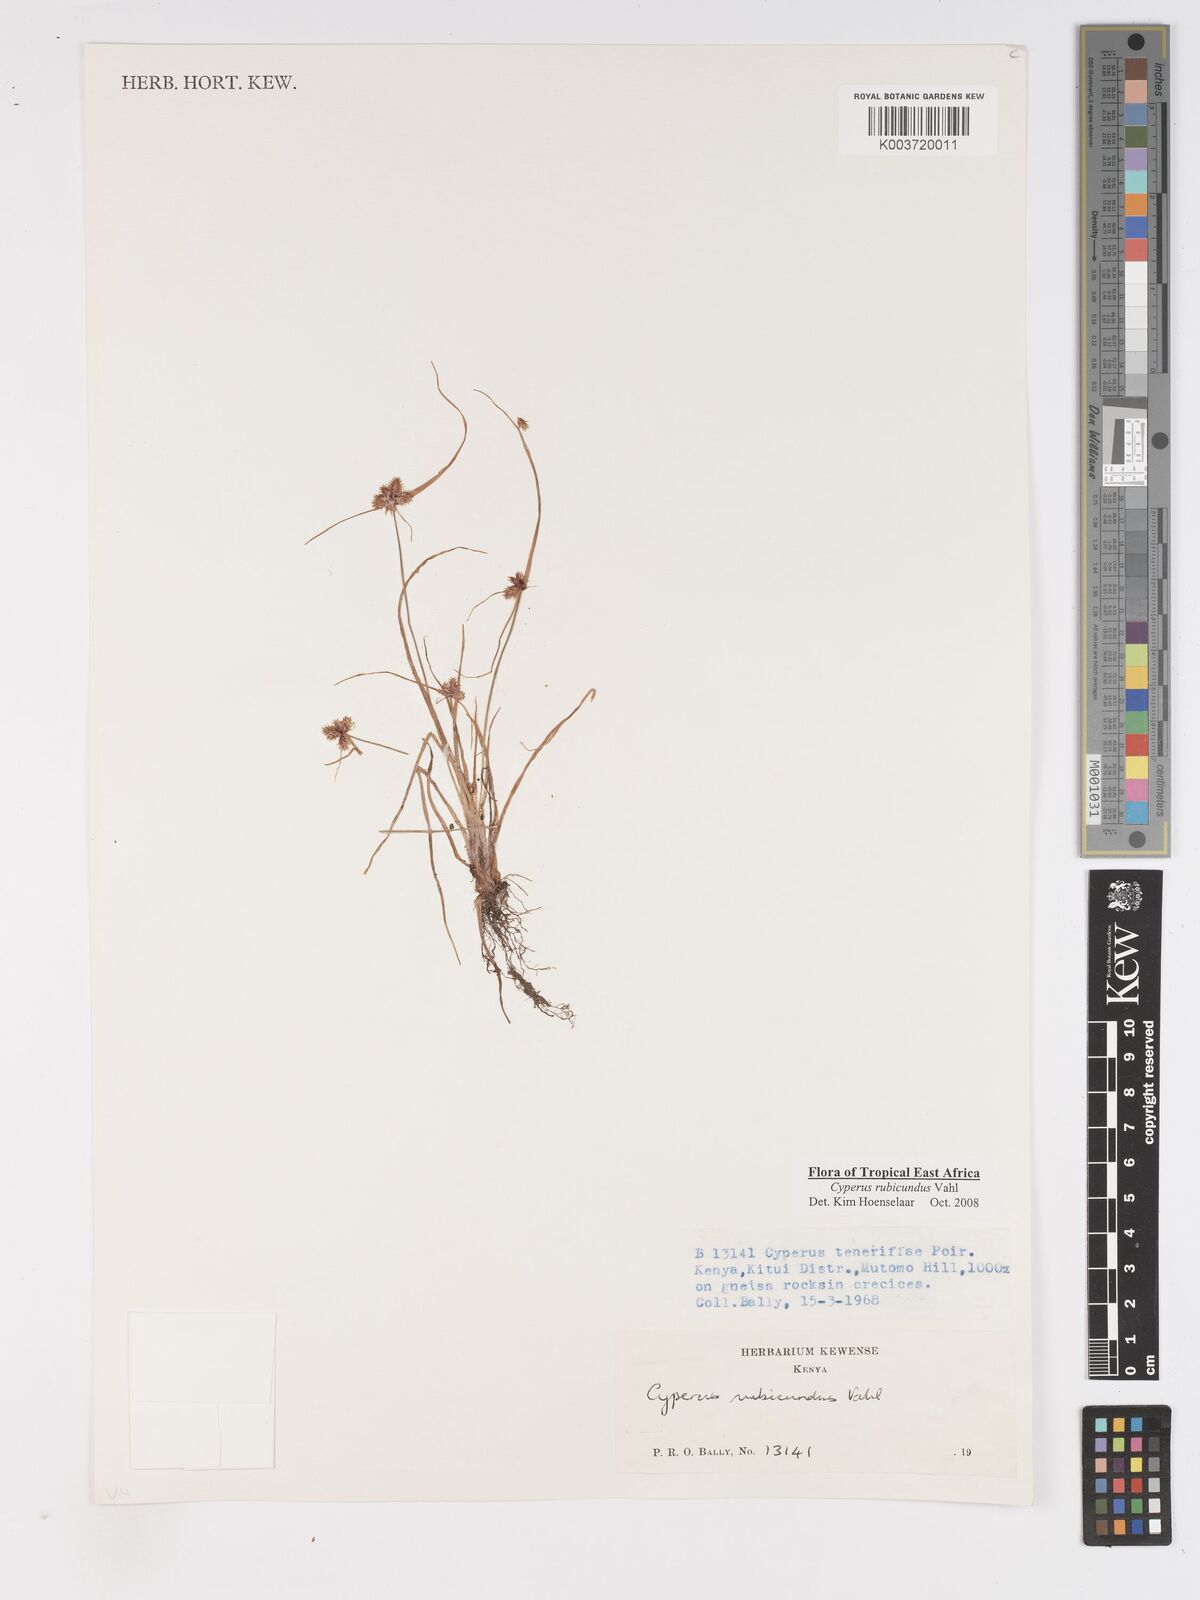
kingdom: Plantae
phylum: Tracheophyta
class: Liliopsida
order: Poales
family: Cyperaceae
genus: Cyperus
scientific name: Cyperus rubicundus
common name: Coco-grass
